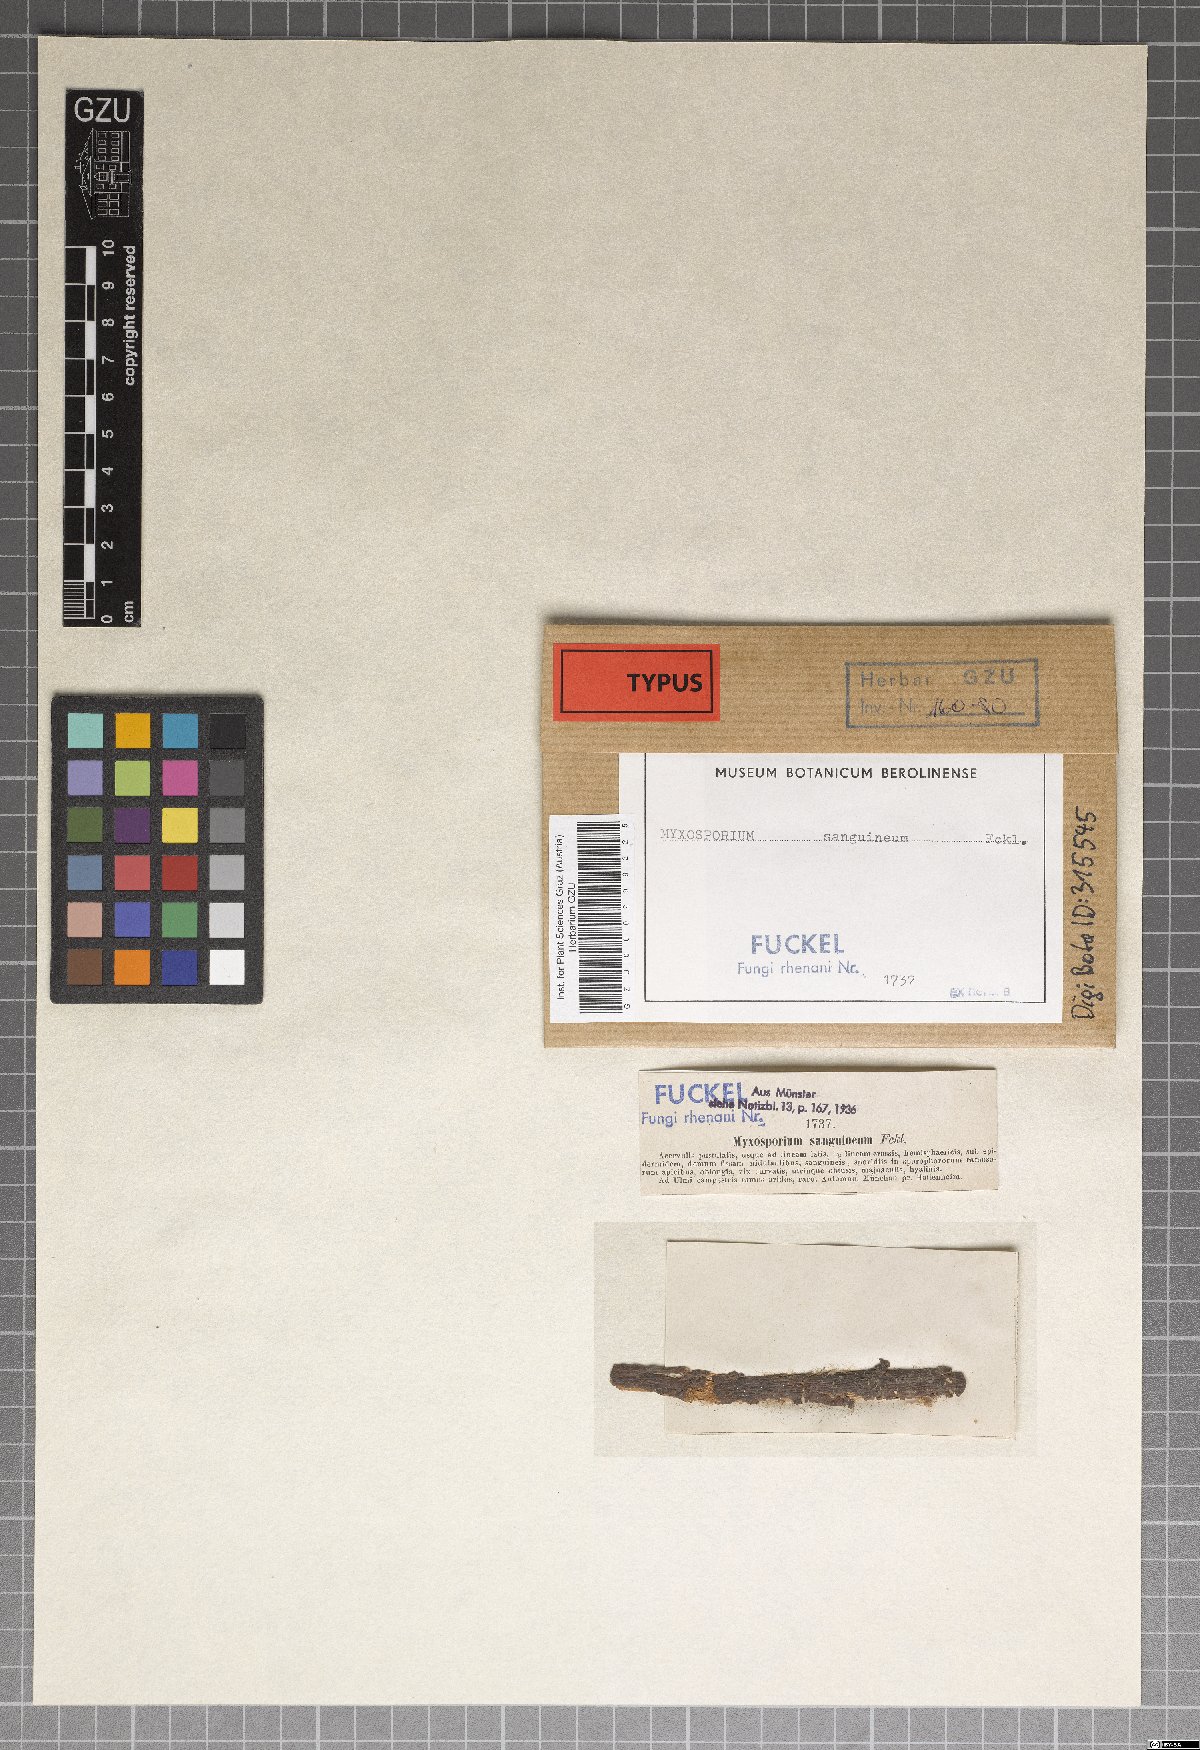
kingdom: Fungi
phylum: Ascomycota
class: Leotiomycetes
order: Helotiales
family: Dermateaceae
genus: Cryptosporiopsis
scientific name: Cryptosporiopsis sanguinea
